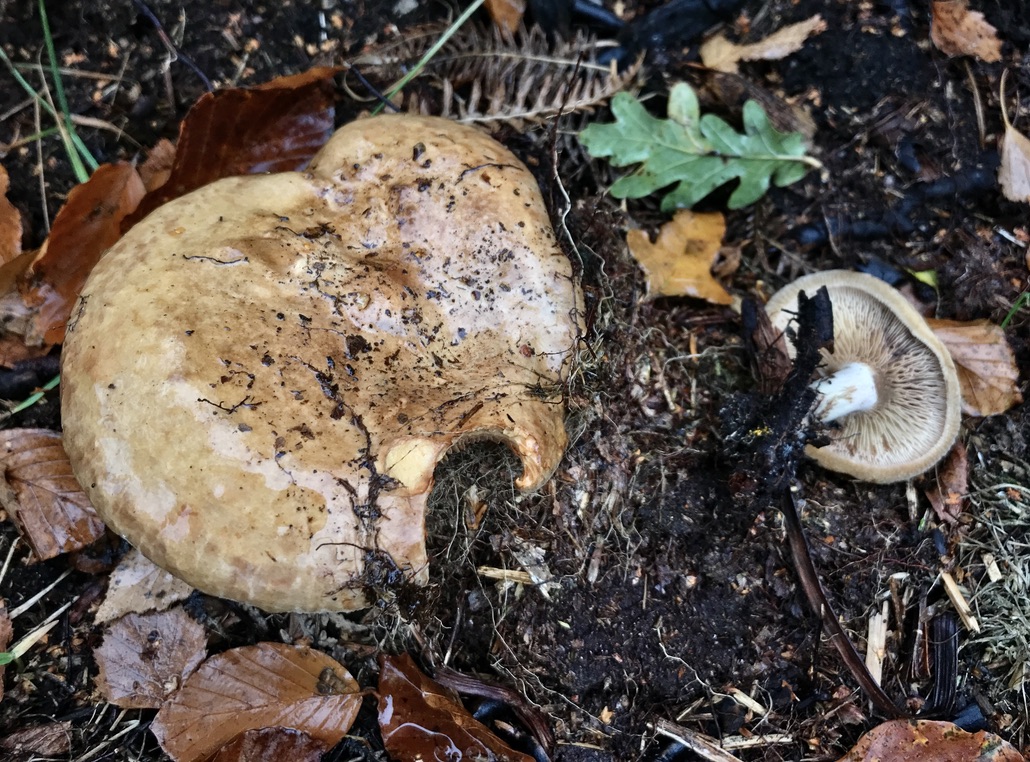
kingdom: Fungi
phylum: Basidiomycota
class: Agaricomycetes
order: Boletales
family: Paxillaceae
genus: Paxillus
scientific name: Paxillus involutus
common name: almindelig netbladhat
